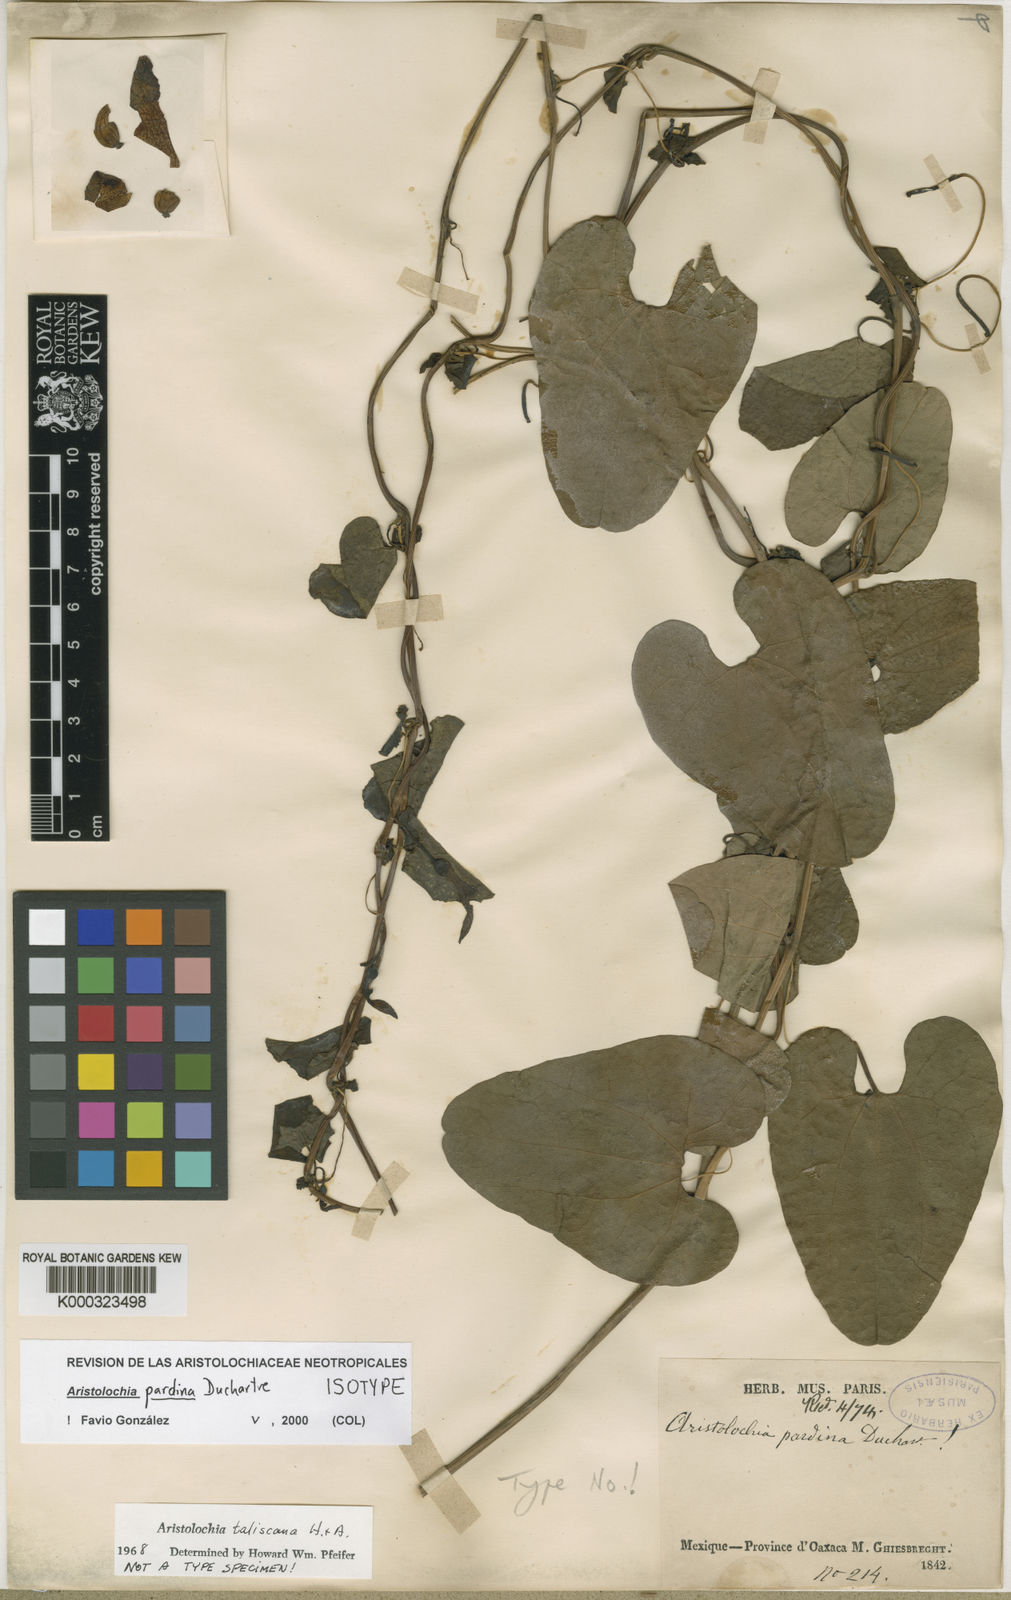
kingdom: Plantae
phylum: Tracheophyta
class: Magnoliopsida
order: Piperales
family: Aristolochiaceae
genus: Aristolochia
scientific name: Aristolochia taliscana
